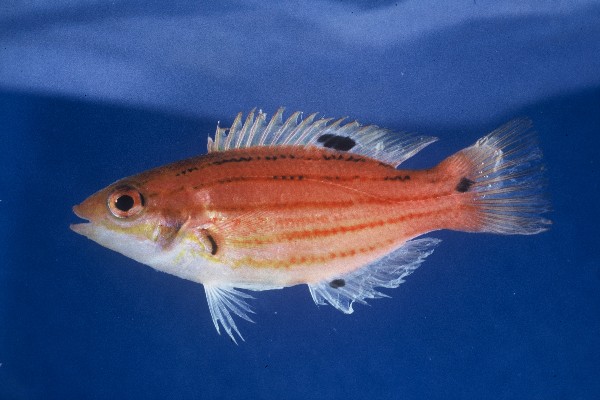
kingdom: Animalia
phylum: Chordata
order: Perciformes
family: Labridae
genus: Bodianus
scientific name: Bodianus leucosticticus
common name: Lined hogfish
